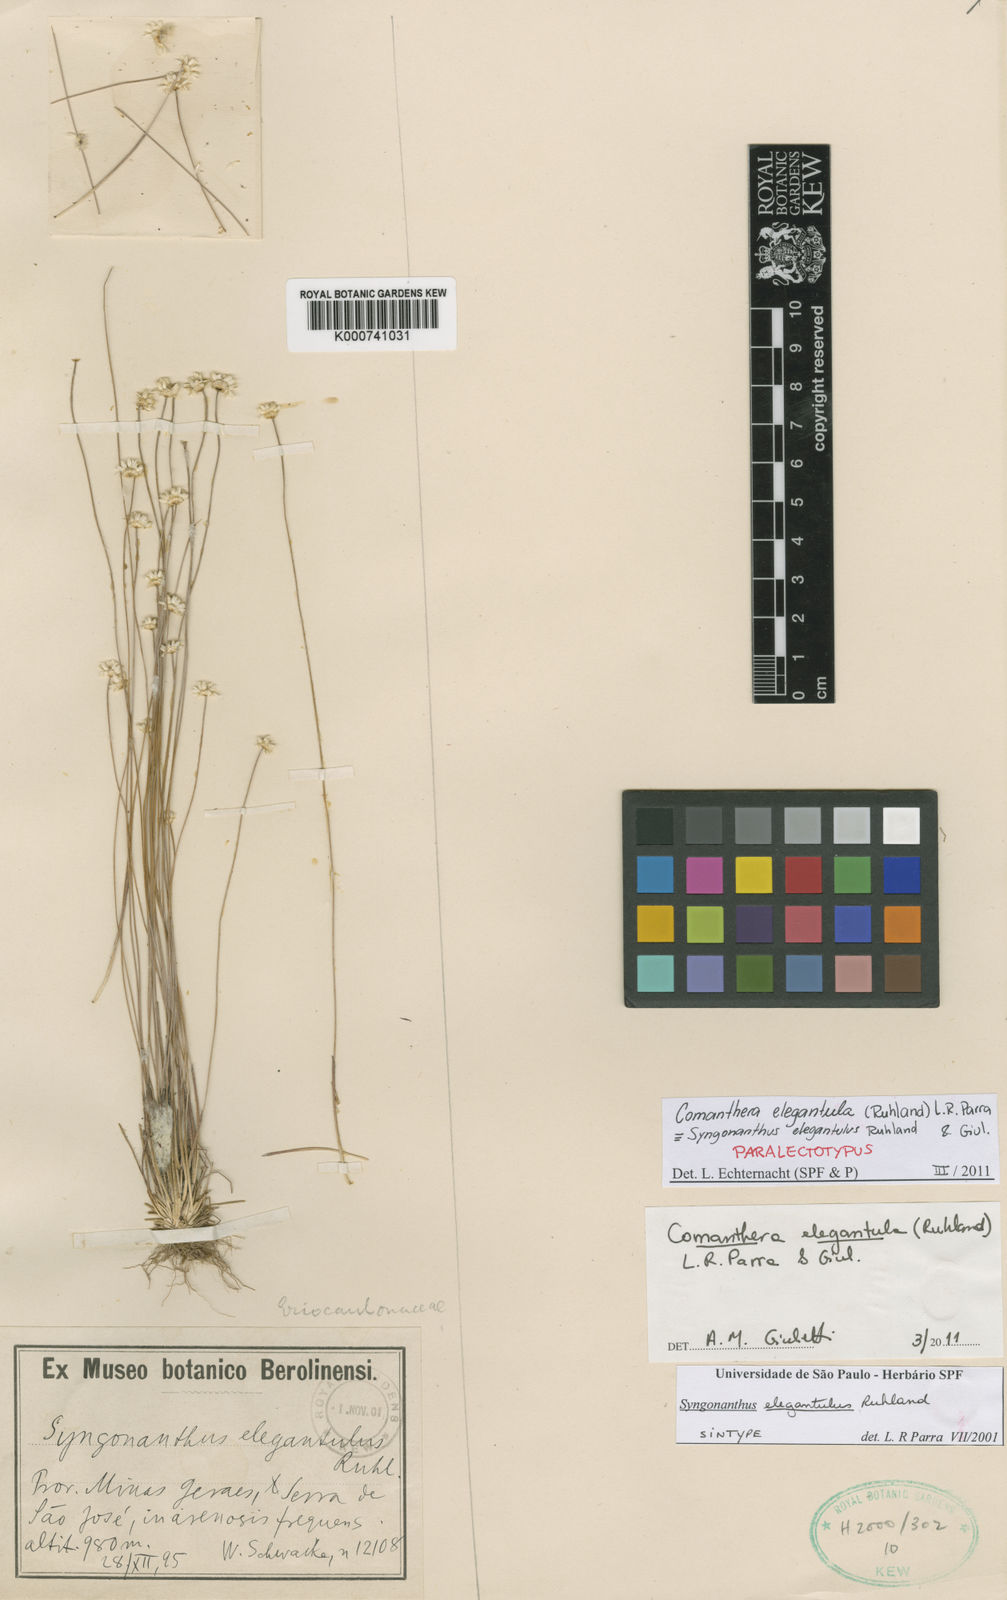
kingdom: Plantae
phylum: Tracheophyta
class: Liliopsida
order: Poales
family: Eriocaulaceae
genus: Comanthera
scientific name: Comanthera elegantula
